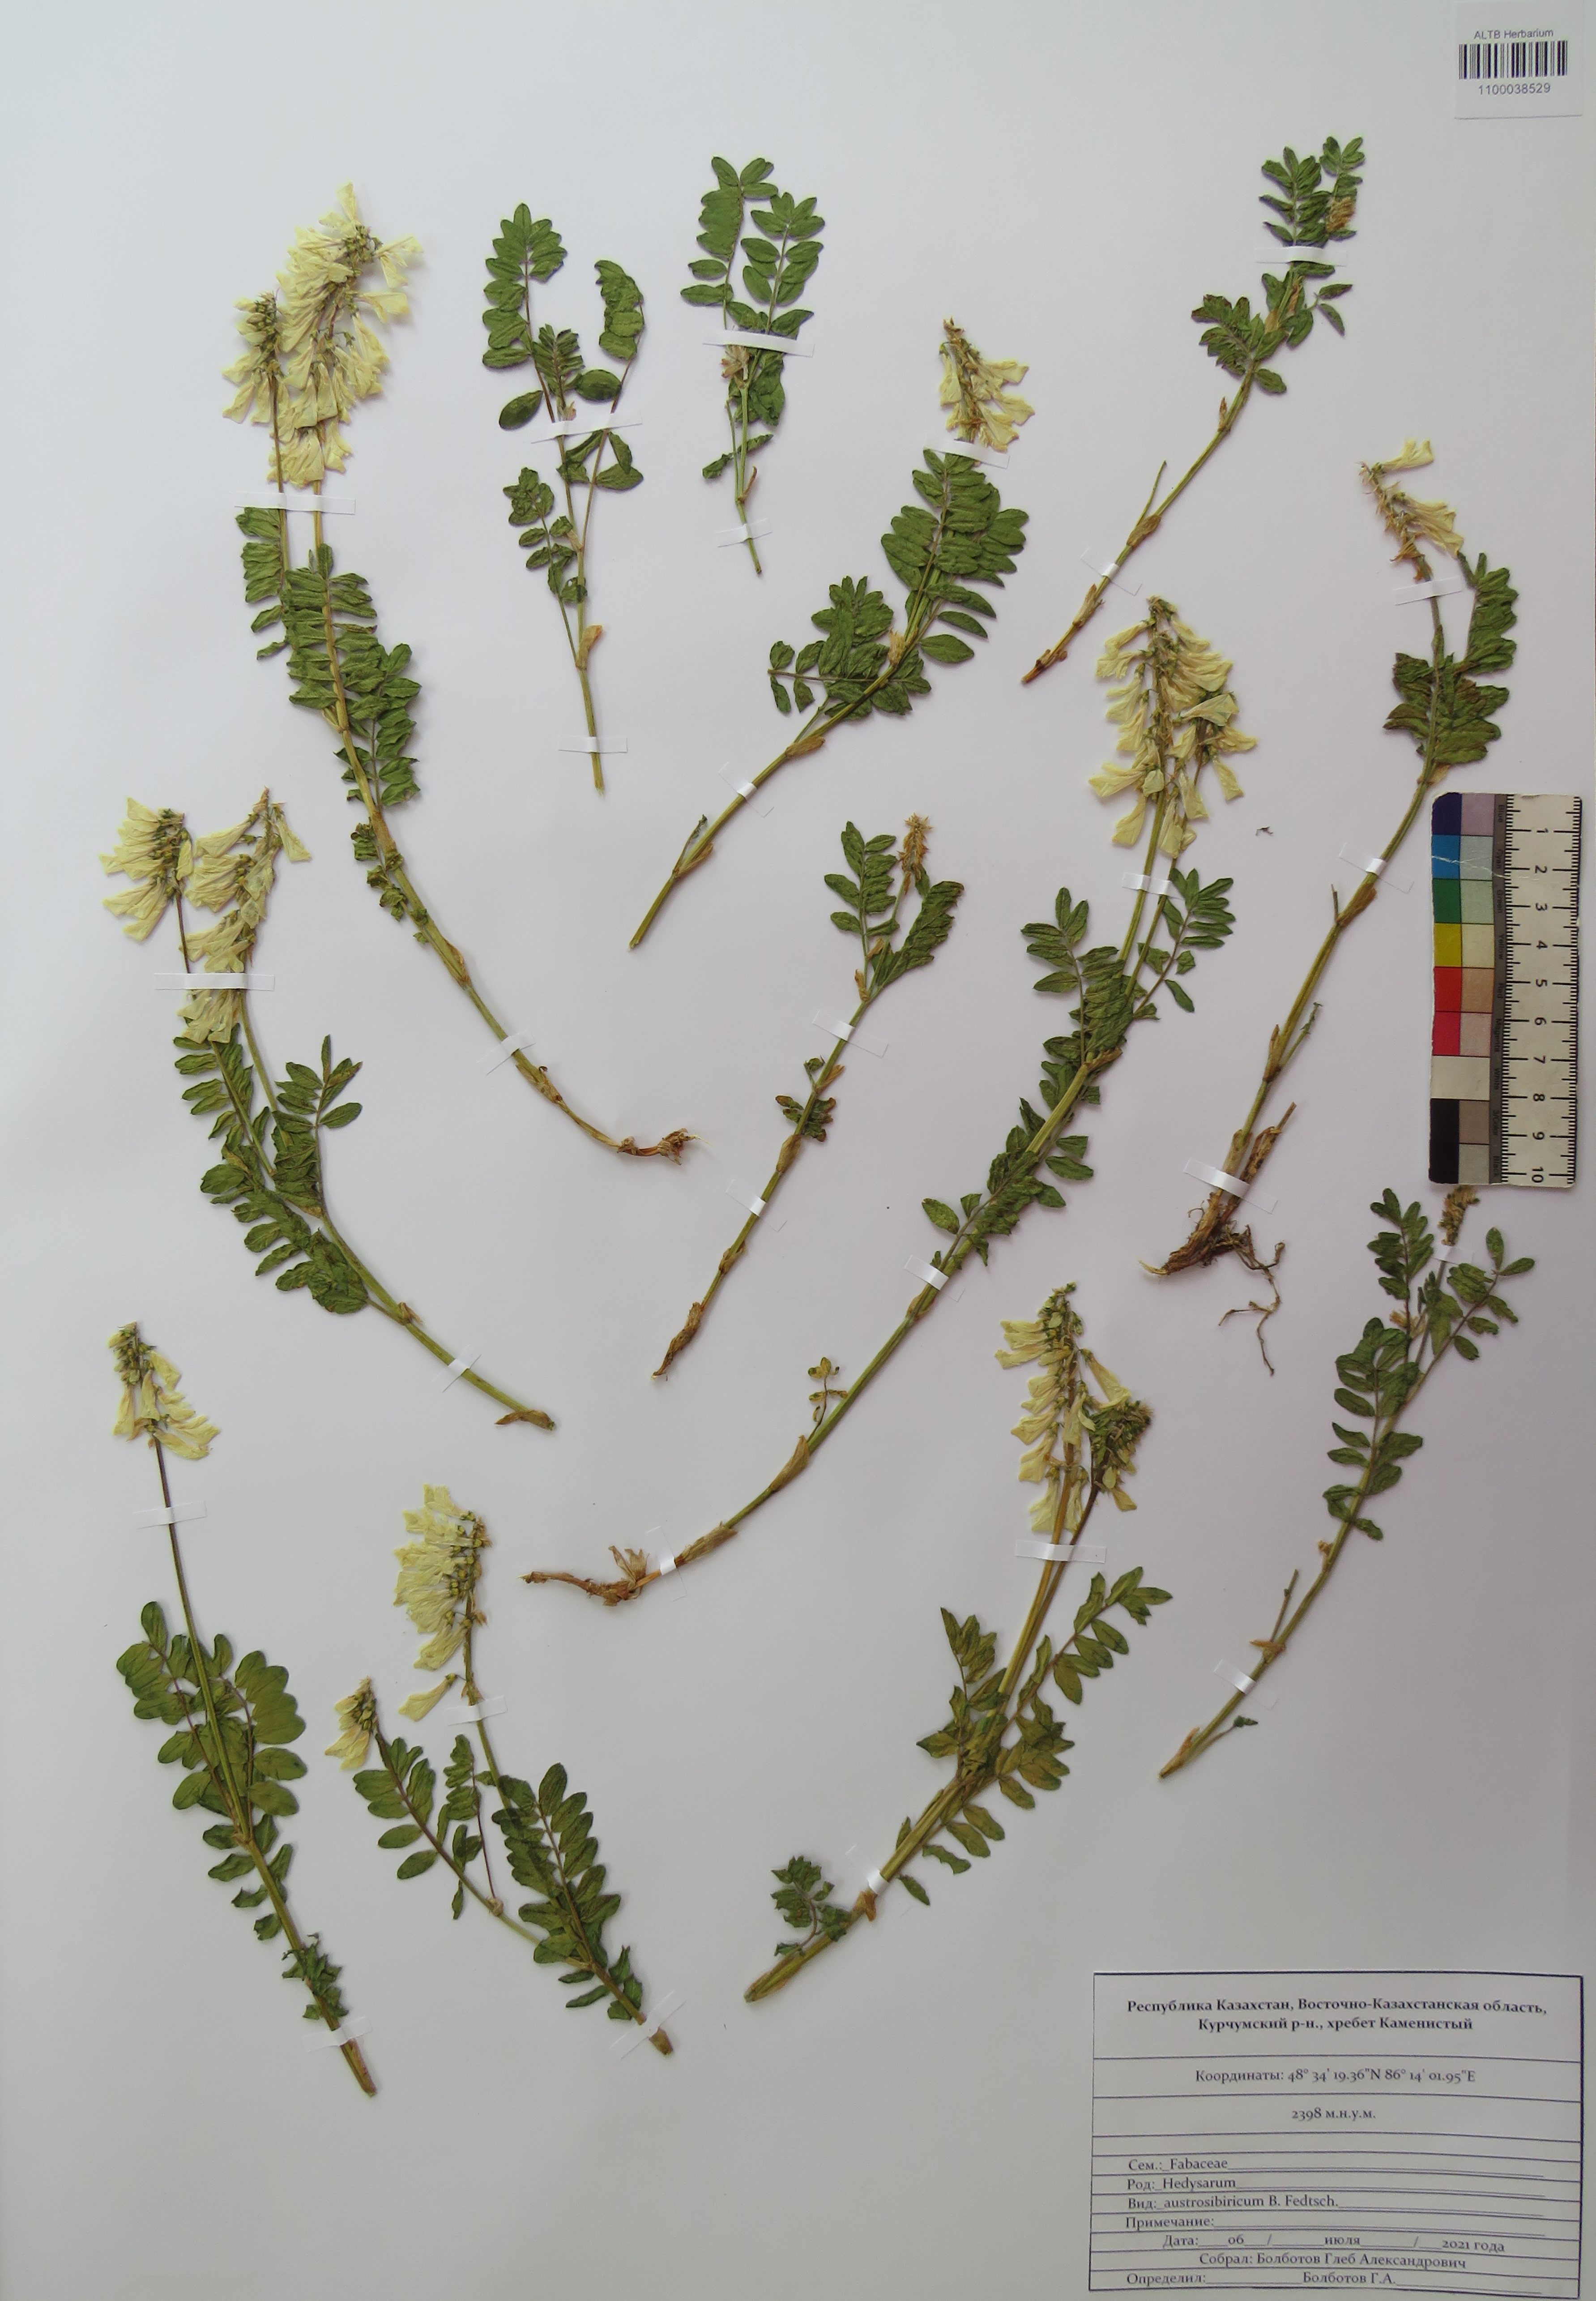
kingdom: Plantae
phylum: Tracheophyta
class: Magnoliopsida
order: Fabales
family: Fabaceae
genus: Hedysarum
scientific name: Hedysarum neglectum
